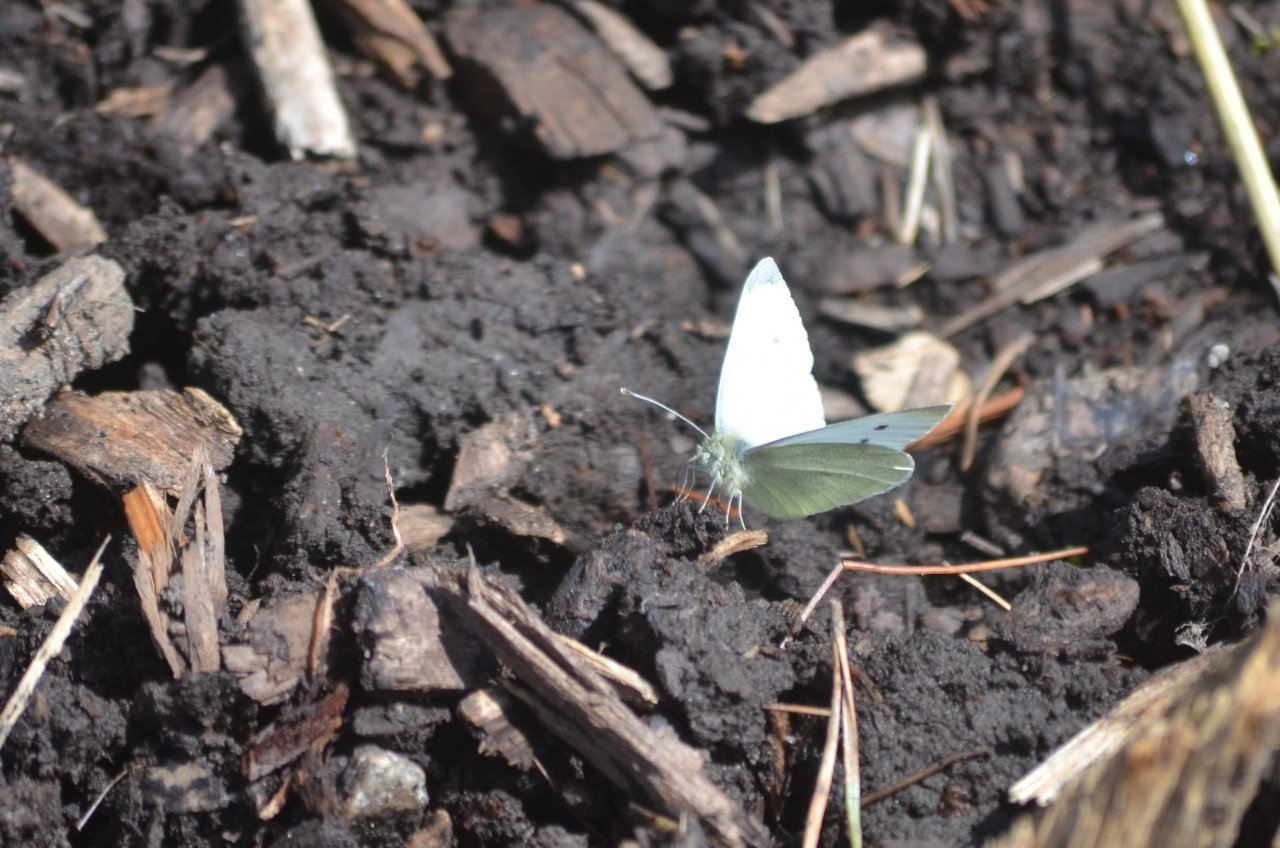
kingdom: Animalia
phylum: Arthropoda
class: Insecta
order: Lepidoptera
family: Pieridae
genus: Pieris
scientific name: Pieris rapae
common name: Cabbage White
